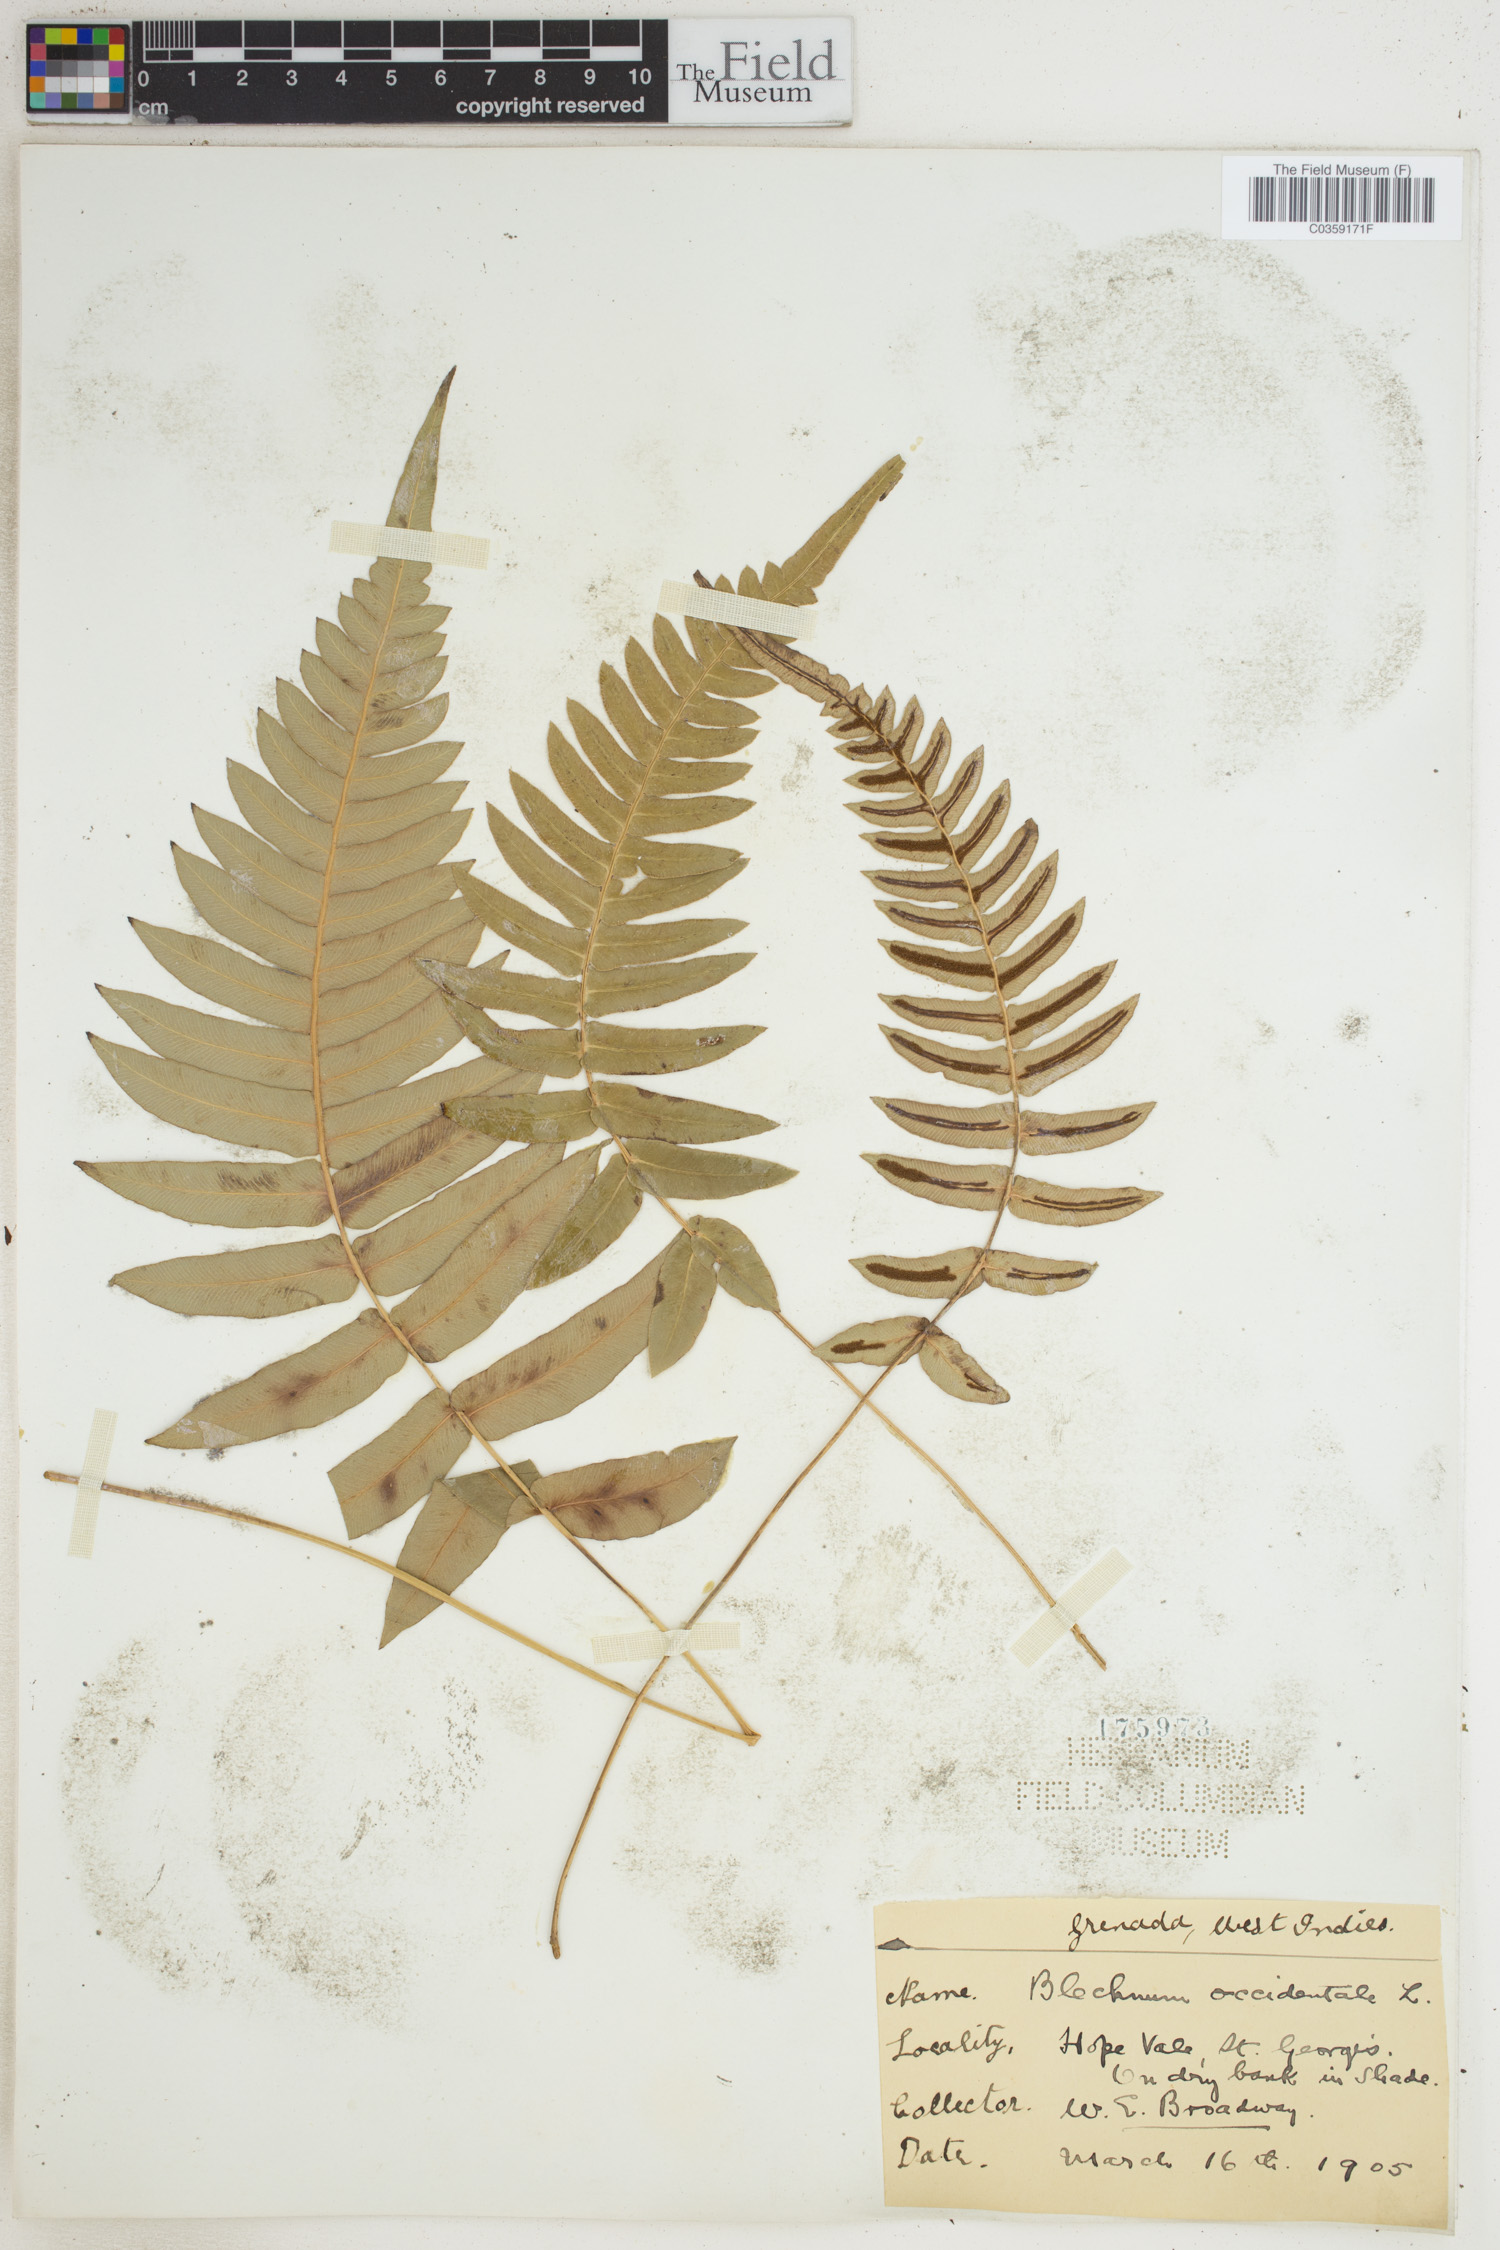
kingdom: Plantae
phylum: Tracheophyta
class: Polypodiopsida
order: Polypodiales
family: Blechnaceae
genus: Blechnum
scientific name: Blechnum occidentale
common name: Hammock fern
